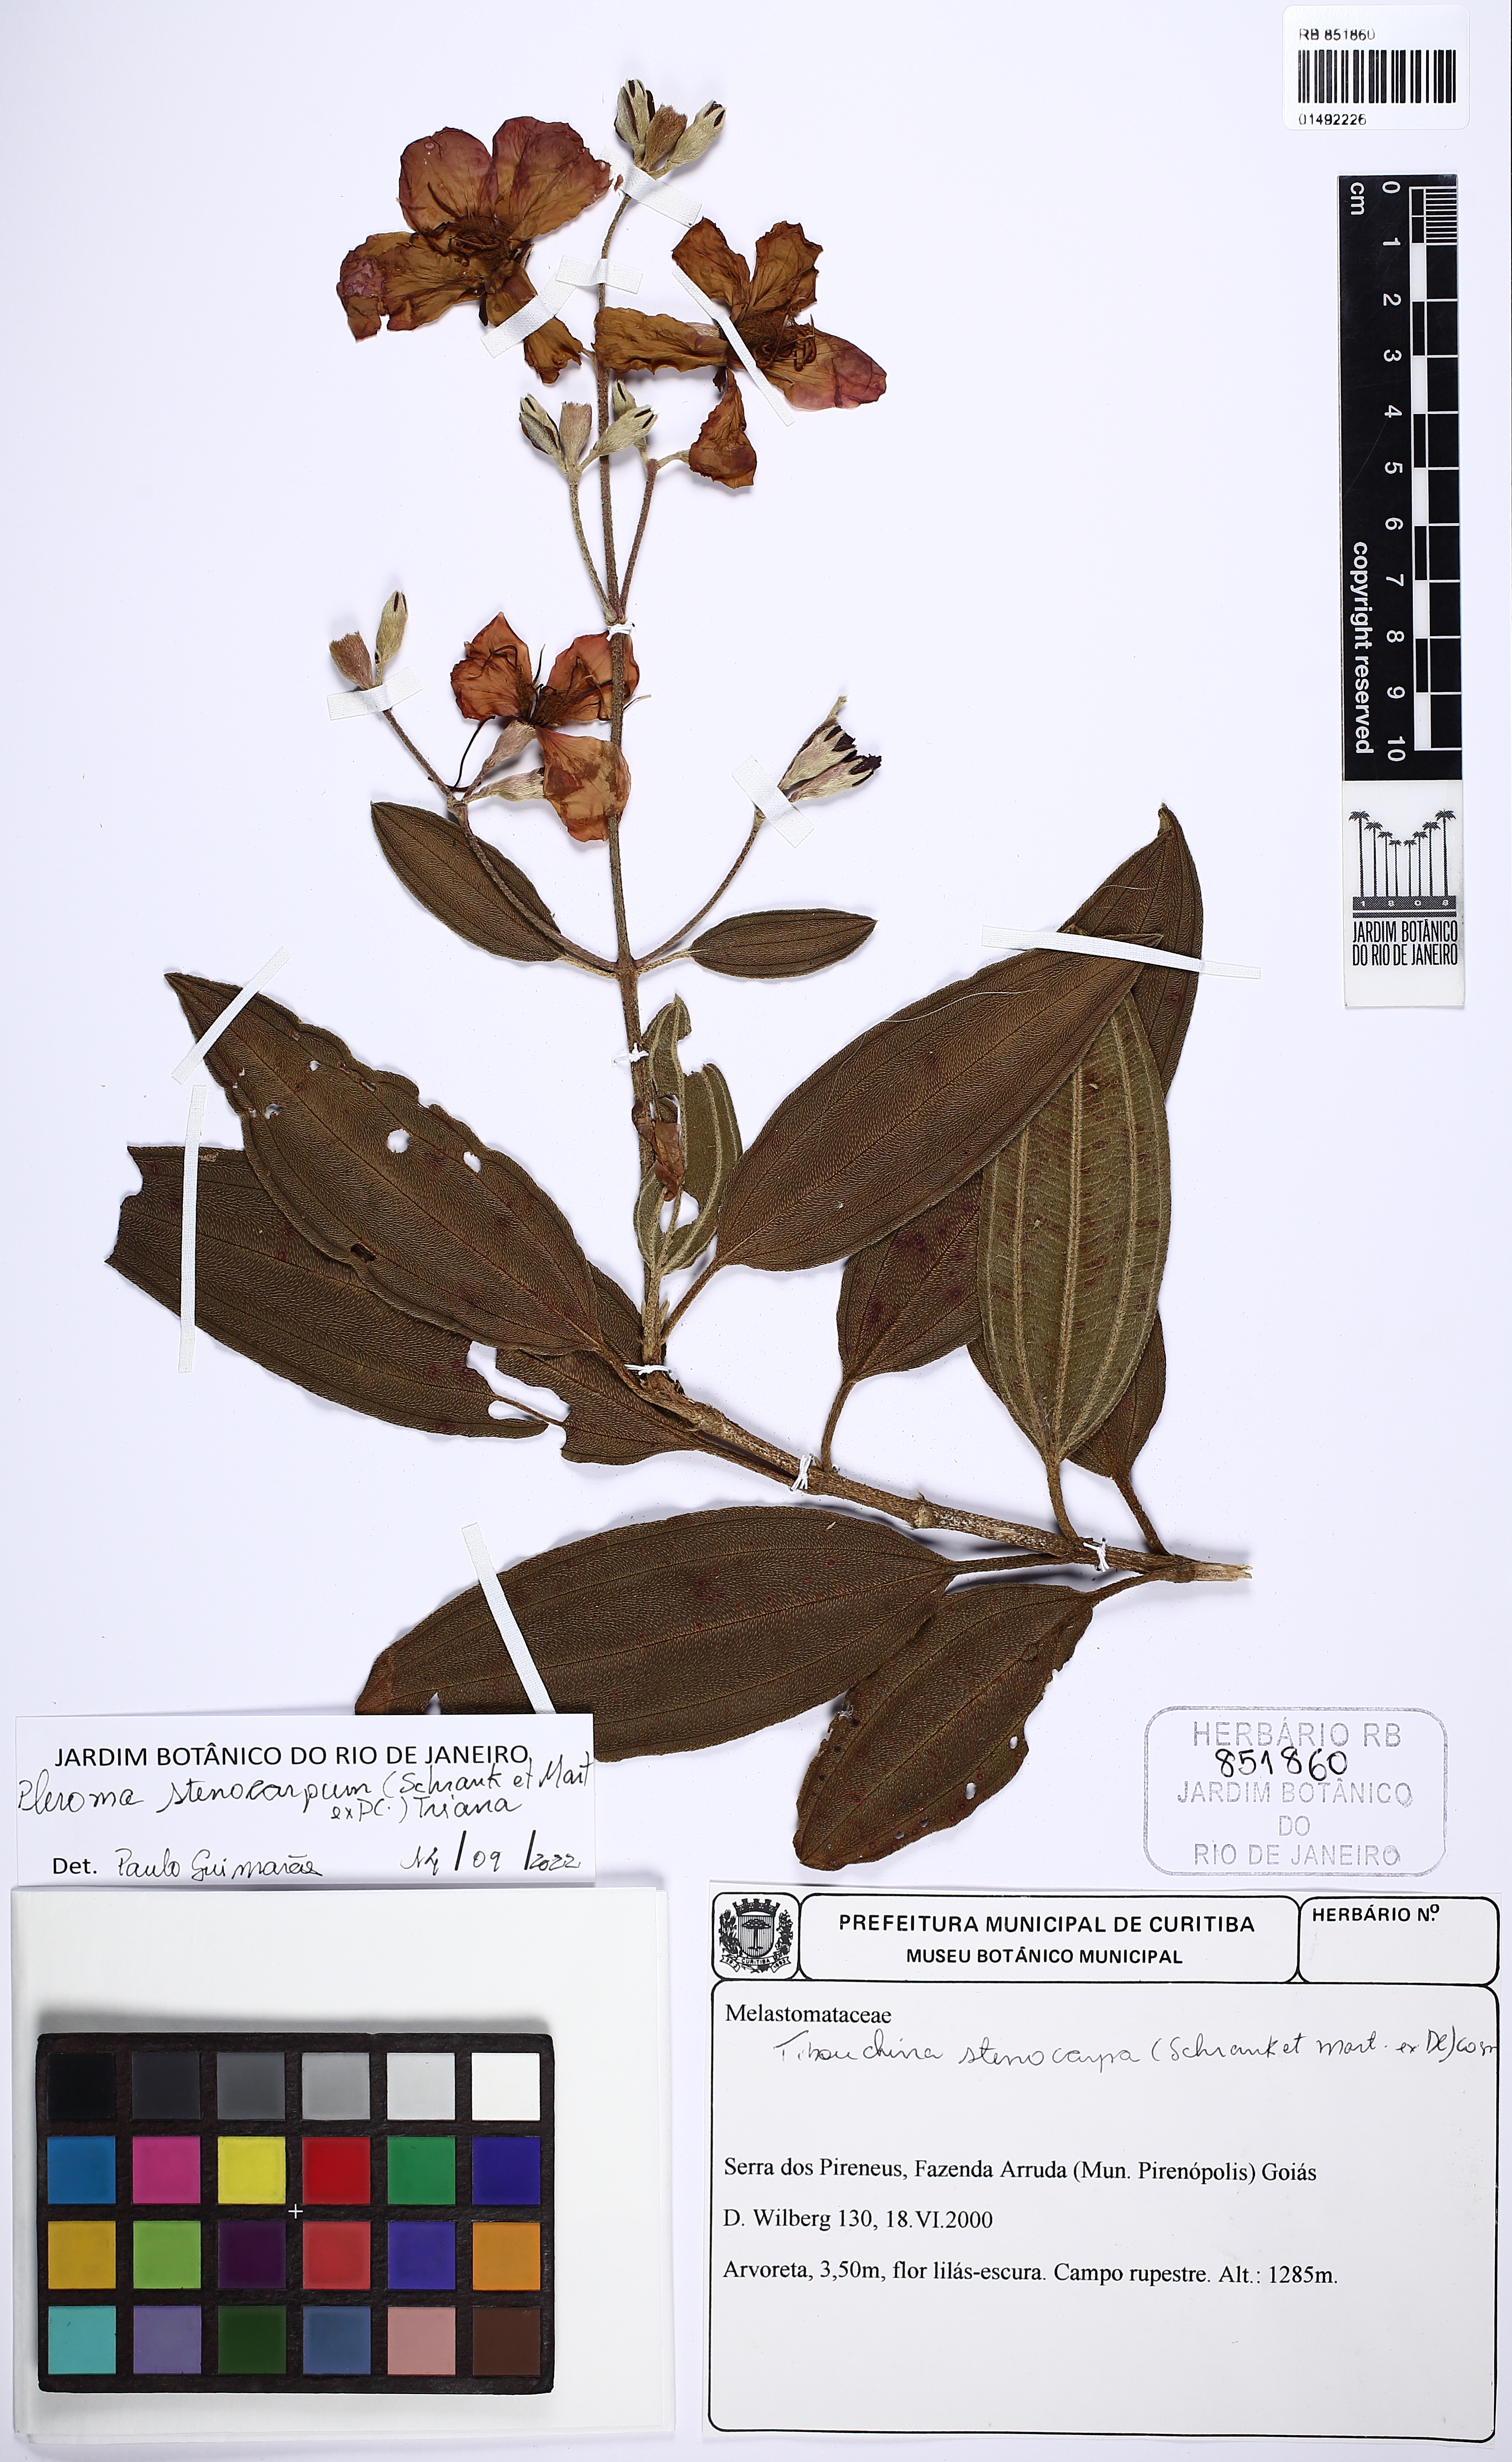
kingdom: Plantae
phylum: Tracheophyta
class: Magnoliopsida
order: Myrtales
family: Melastomataceae
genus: Pleroma
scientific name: Pleroma stenocarpum
